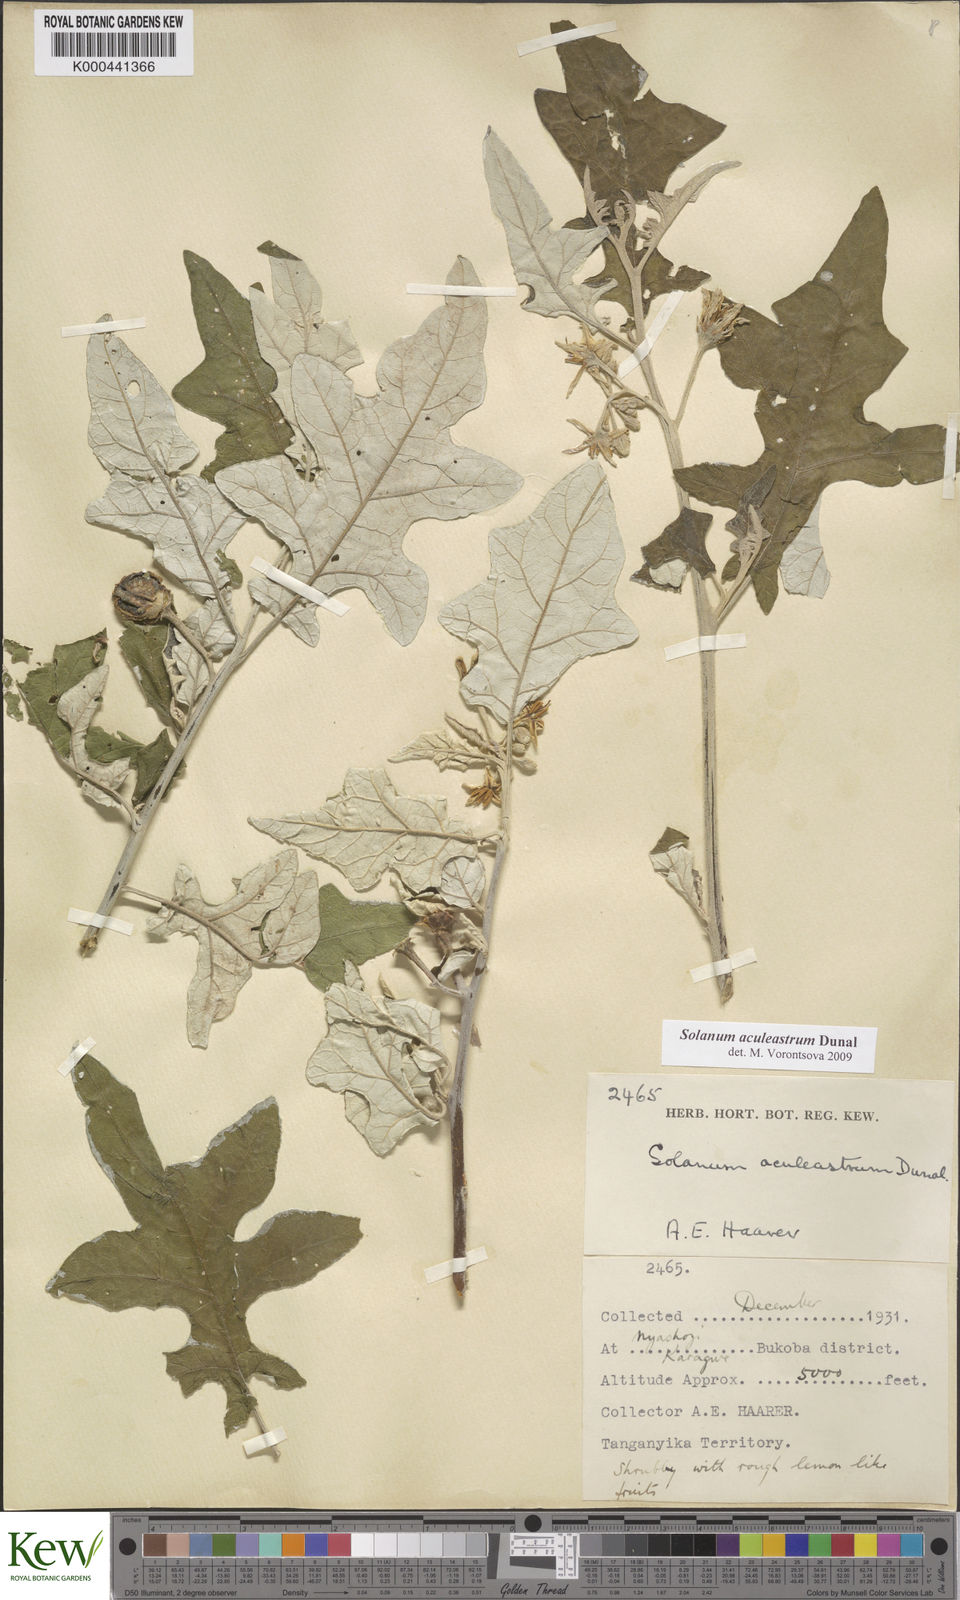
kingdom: Plantae
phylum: Tracheophyta
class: Magnoliopsida
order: Solanales
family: Solanaceae
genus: Solanum
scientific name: Solanum aculeastrum
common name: Goat bitter-apple
